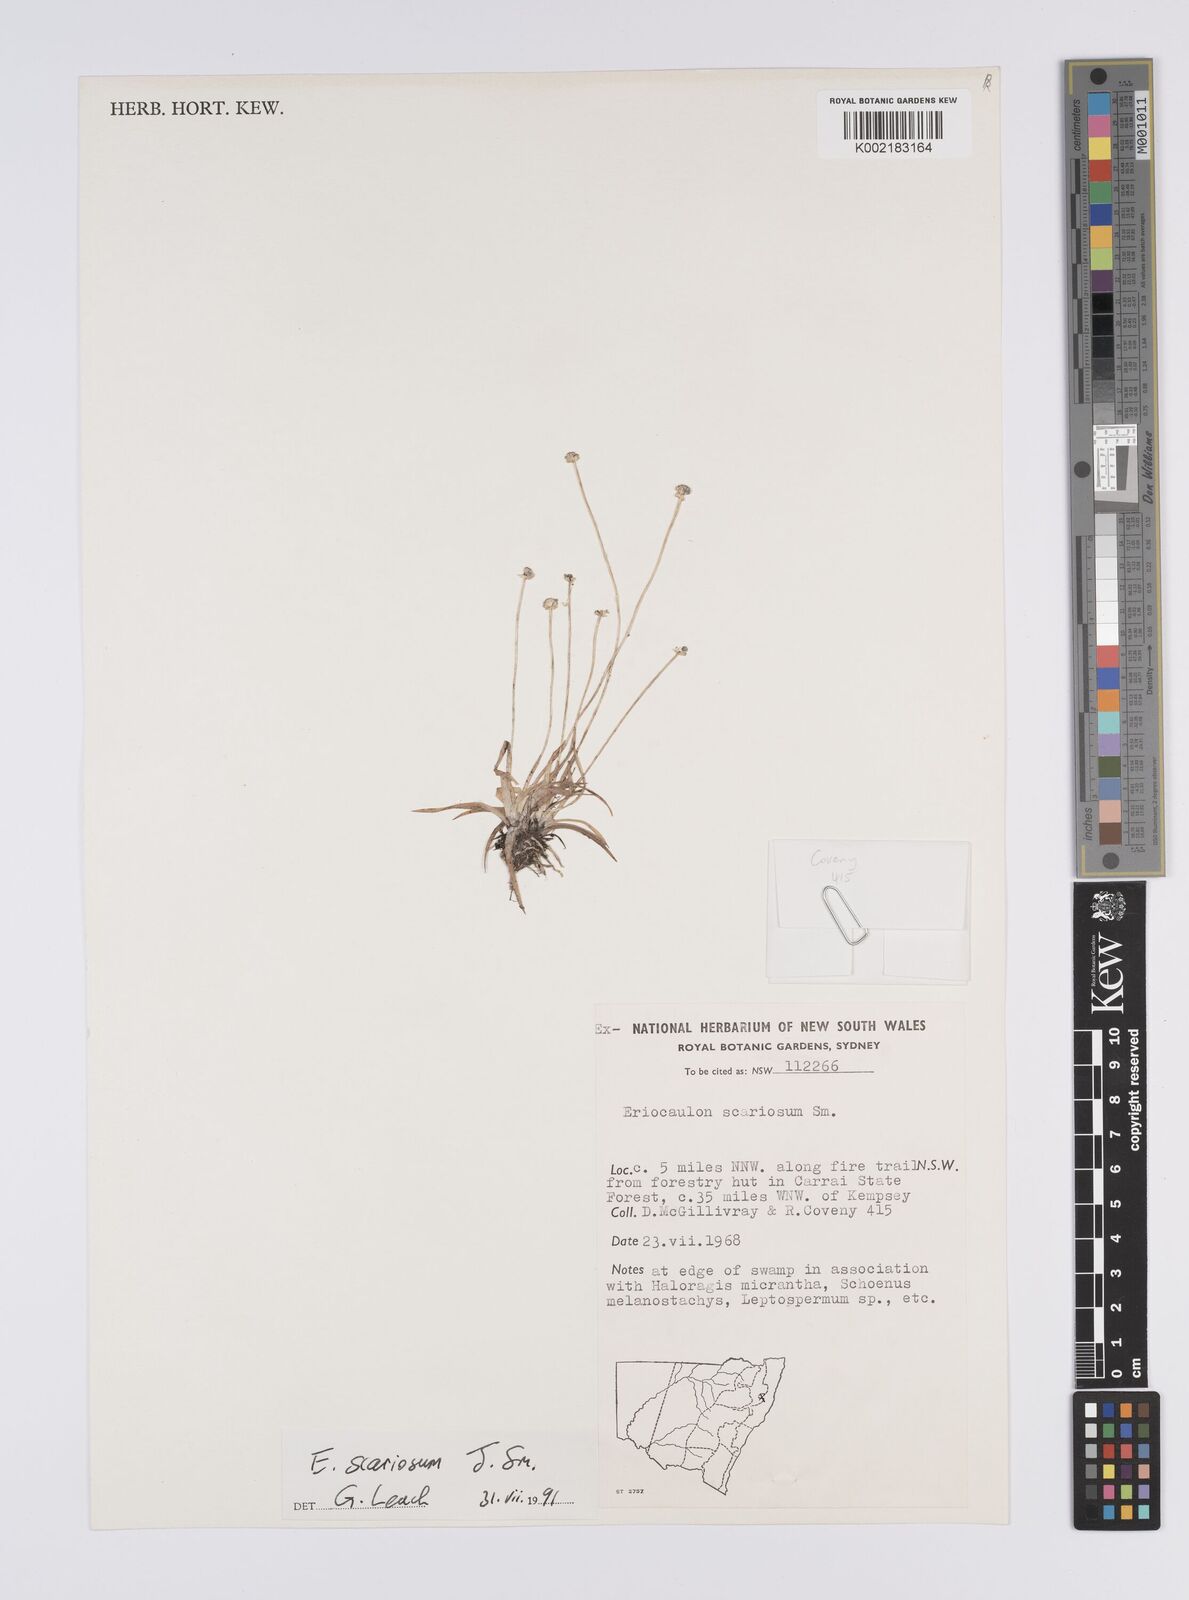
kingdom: Plantae
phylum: Tracheophyta
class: Liliopsida
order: Poales
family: Eriocaulaceae
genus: Eriocaulon
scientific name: Eriocaulon scariosum
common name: Rough pipewort
